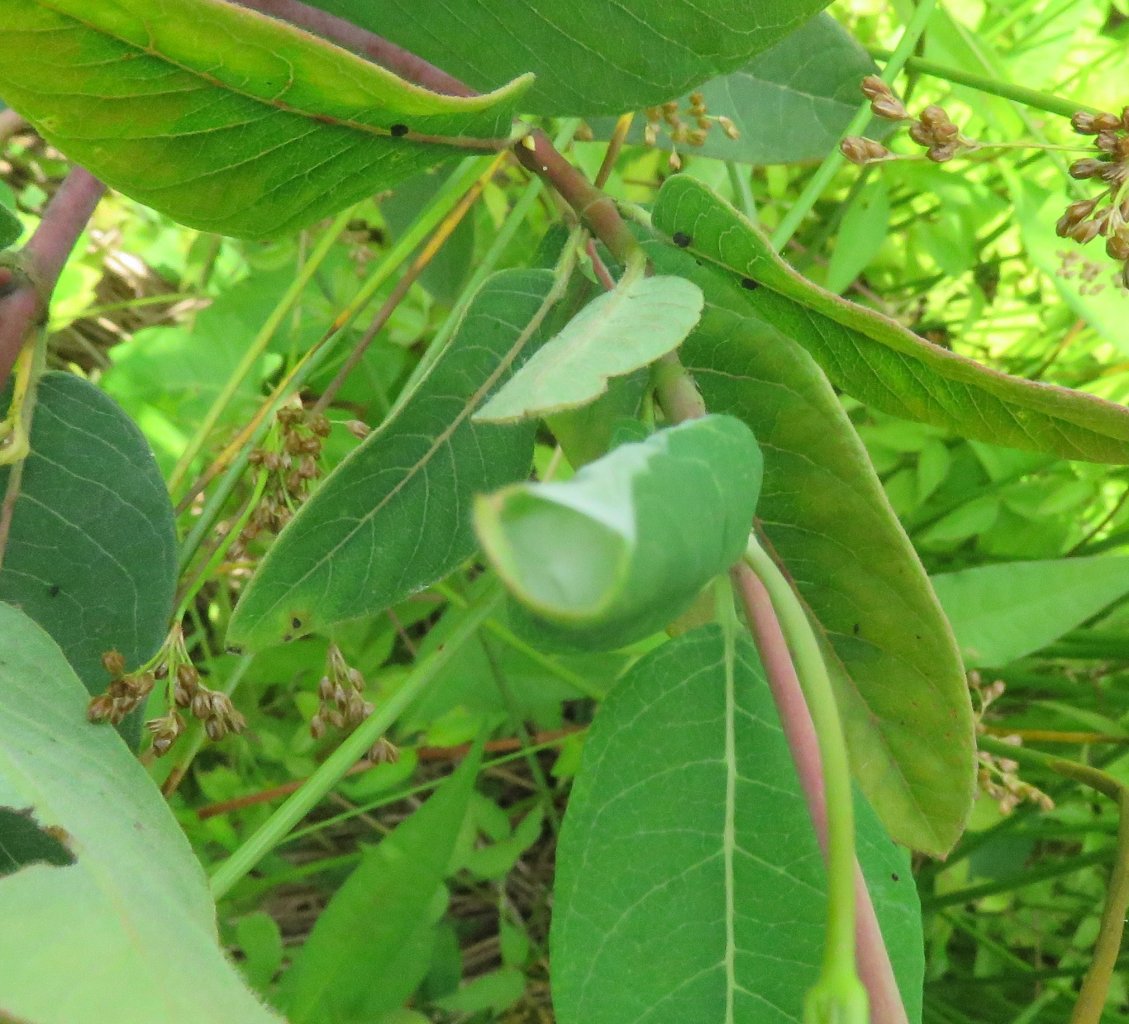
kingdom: Animalia
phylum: Arthropoda
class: Insecta
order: Lepidoptera
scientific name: Lepidoptera
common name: Butterflies
